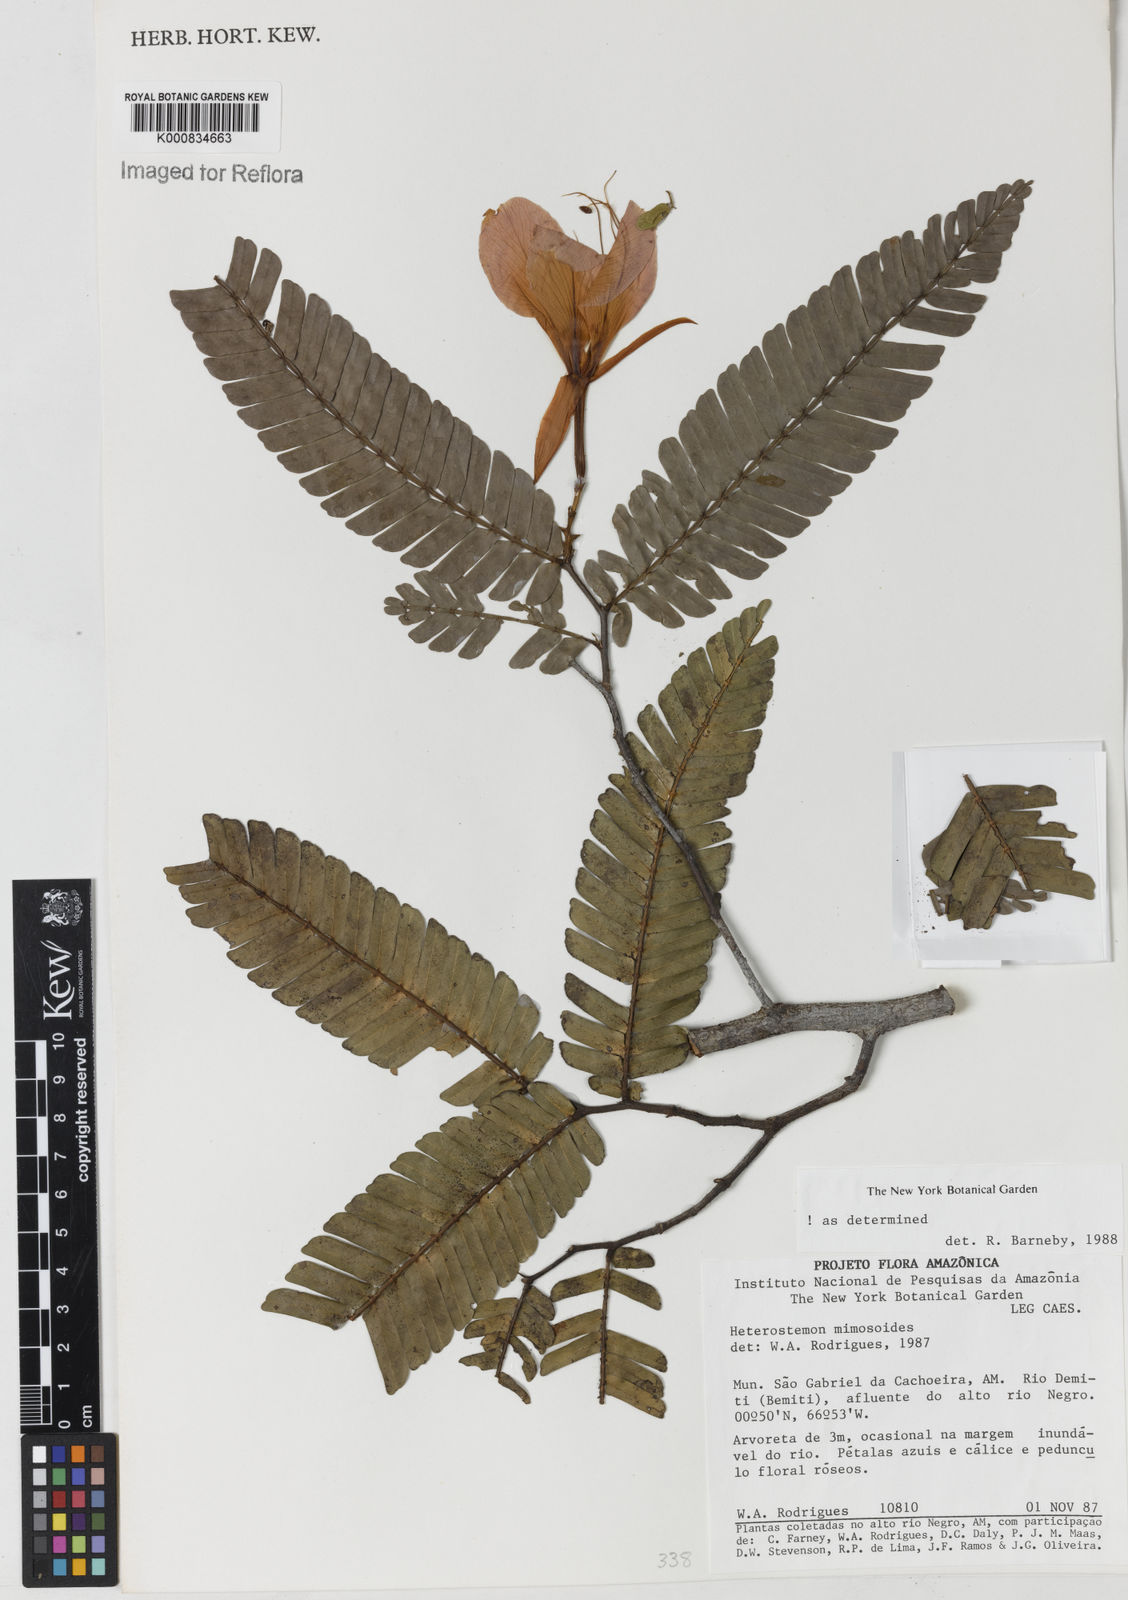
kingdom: Plantae
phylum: Tracheophyta
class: Magnoliopsida
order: Fabales
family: Fabaceae
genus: Heterostemon
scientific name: Heterostemon mimosoides
